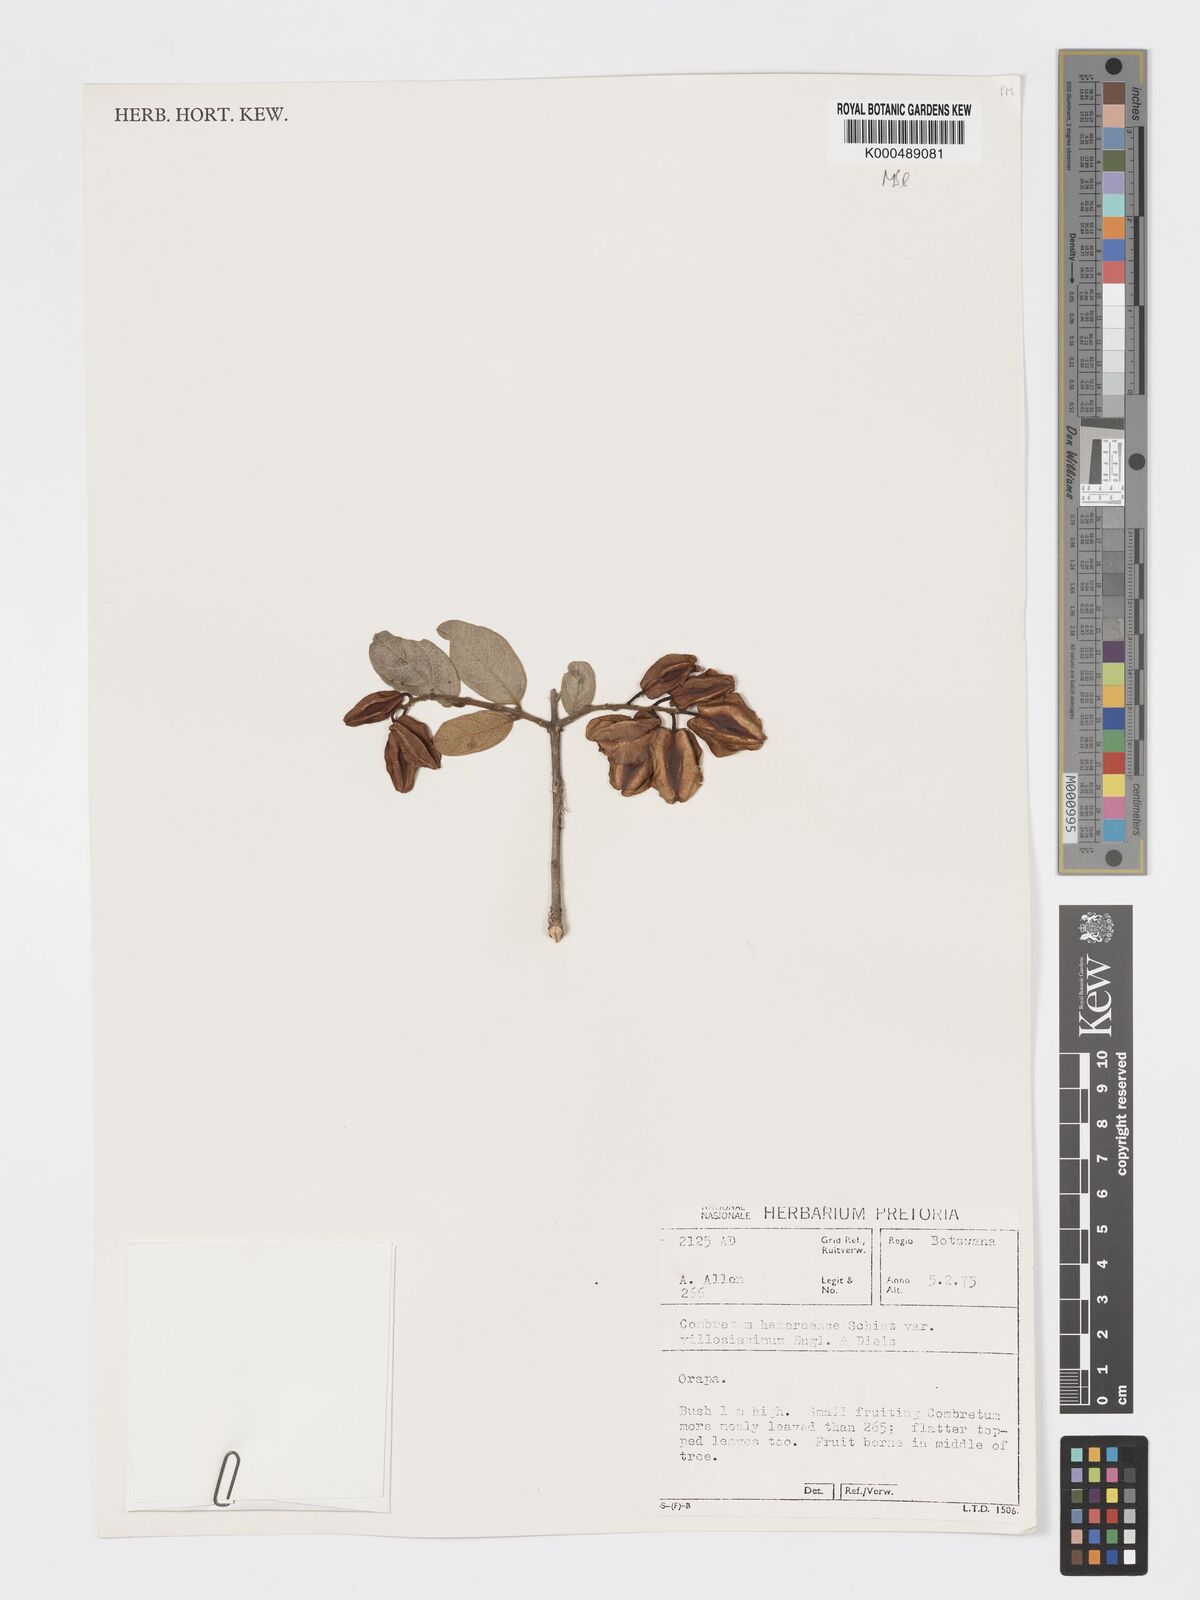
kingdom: Plantae
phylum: Tracheophyta
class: Magnoliopsida
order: Myrtales
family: Combretaceae
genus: Combretum
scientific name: Combretum hereroense
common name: Russet bushwillow
